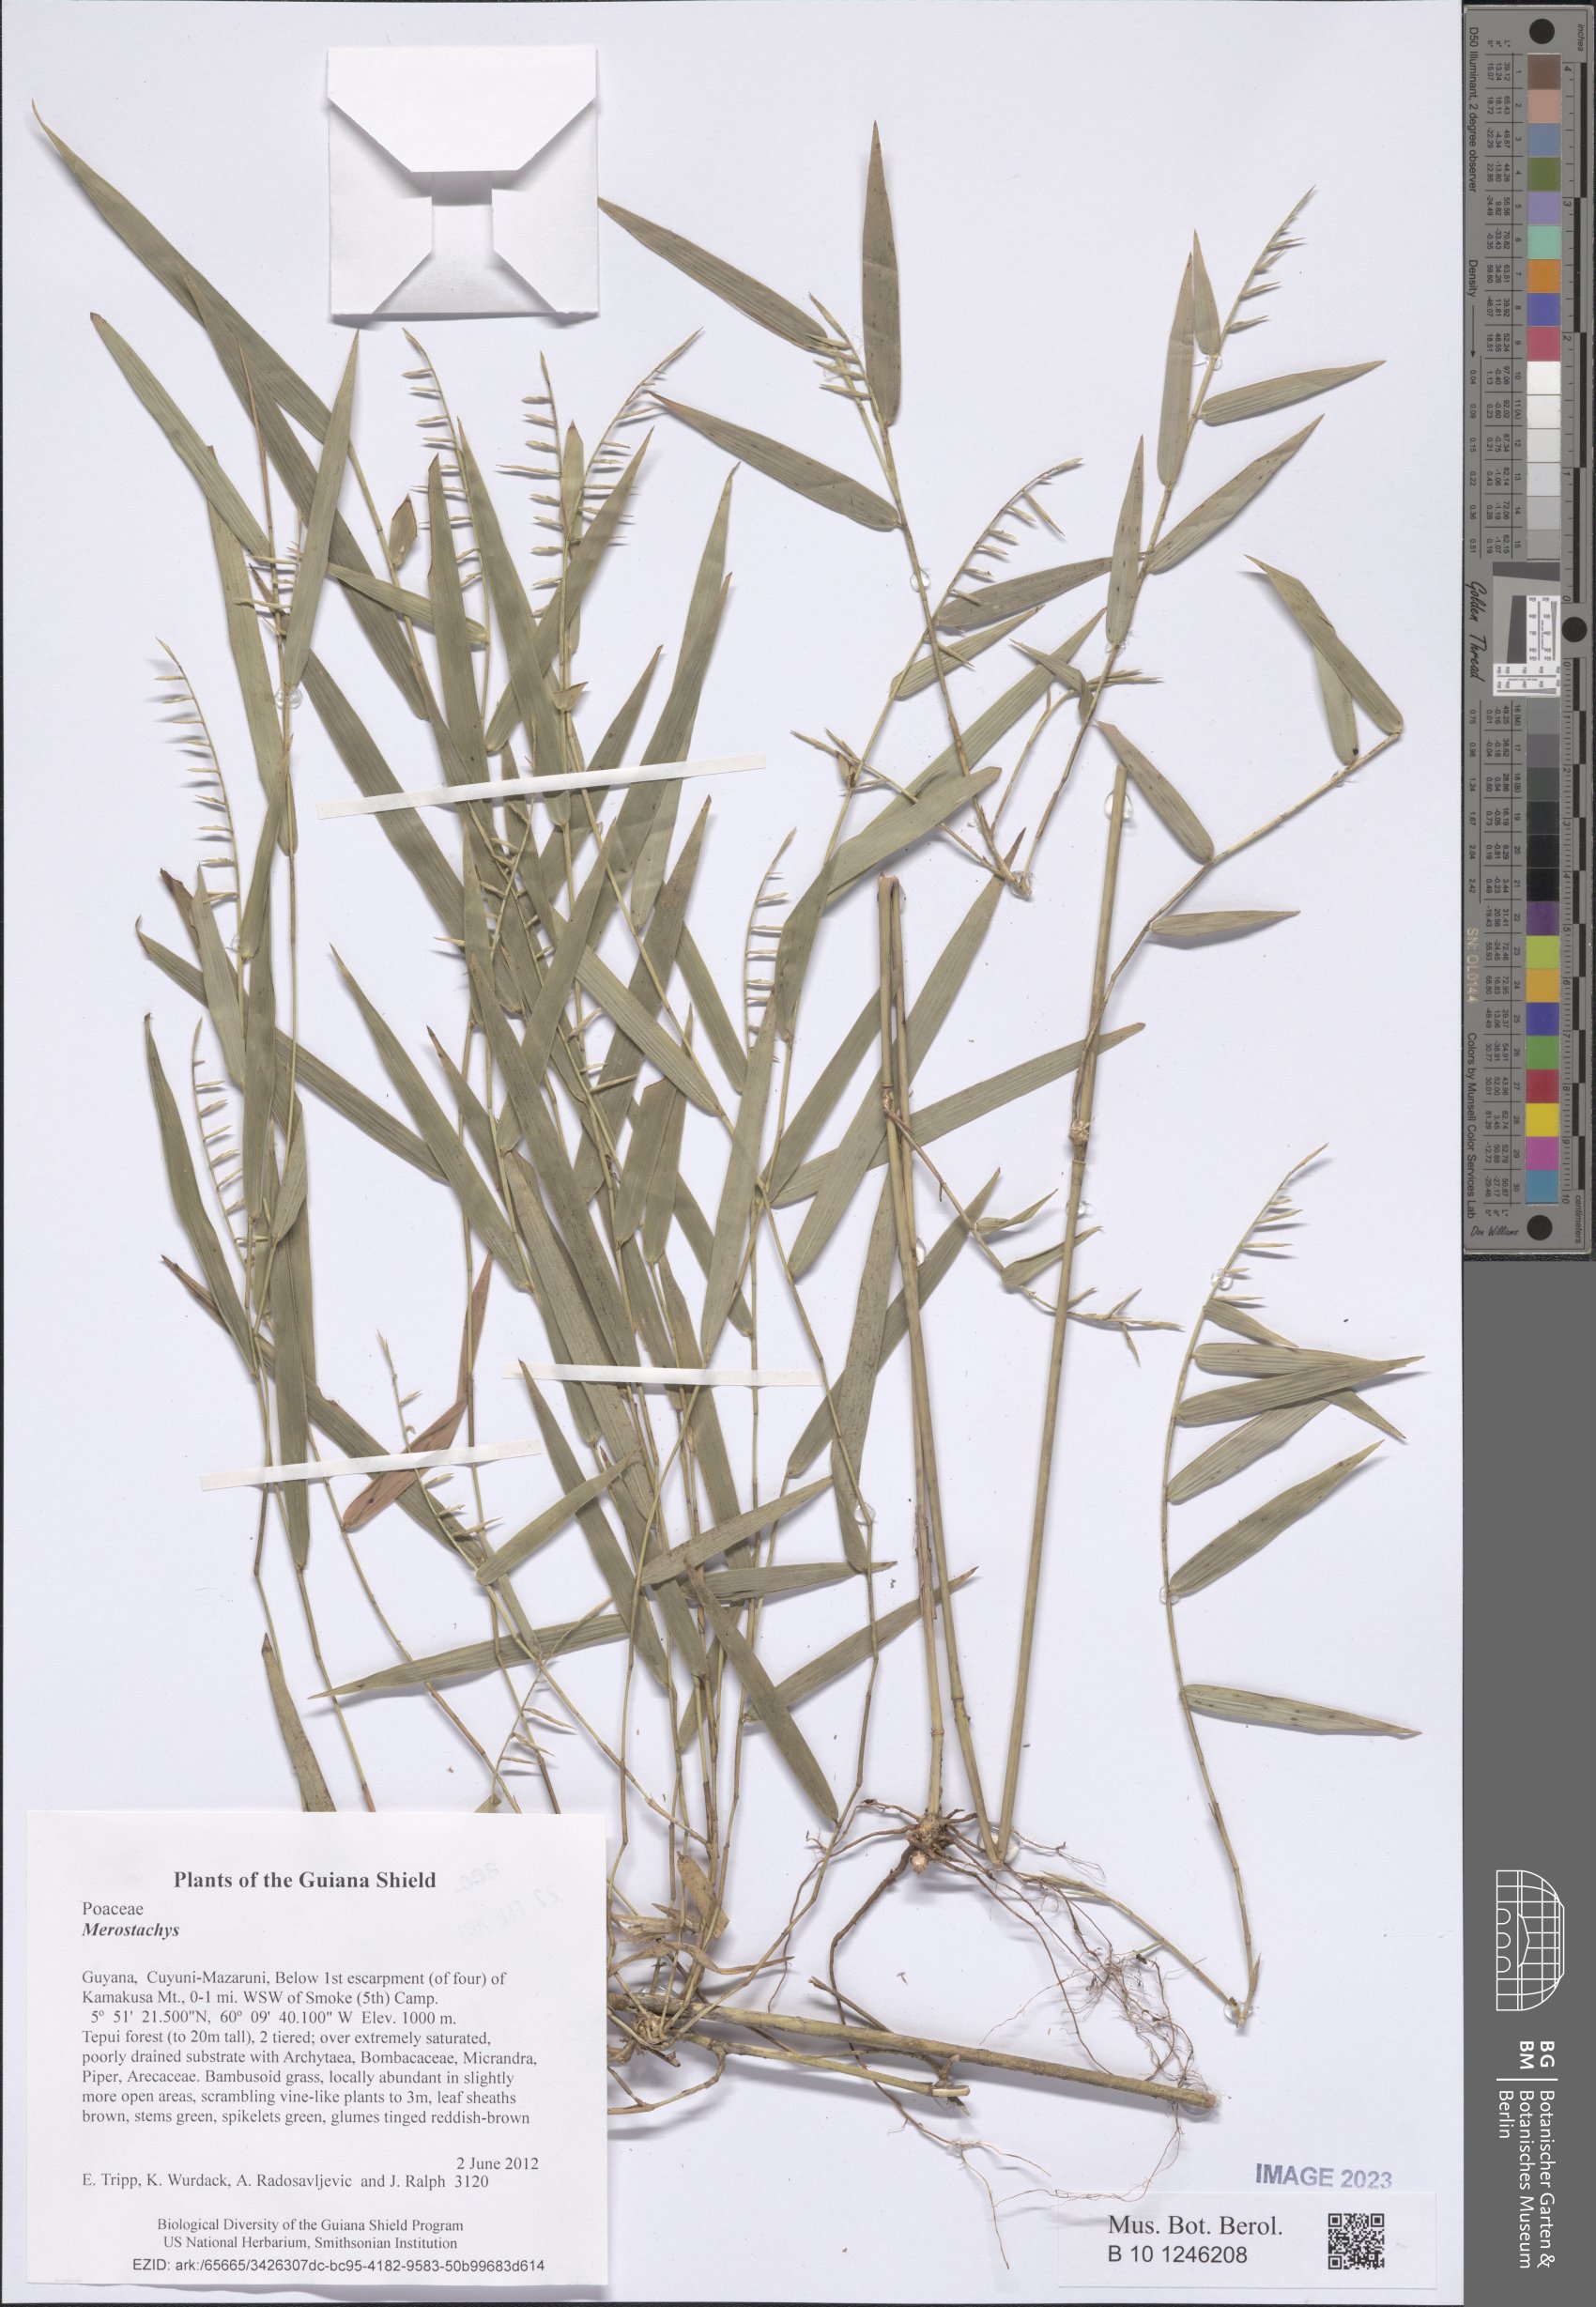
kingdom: Plantae
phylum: Tracheophyta
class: Liliopsida
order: Poales
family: Poaceae
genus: Merostachys
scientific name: Merostachys
